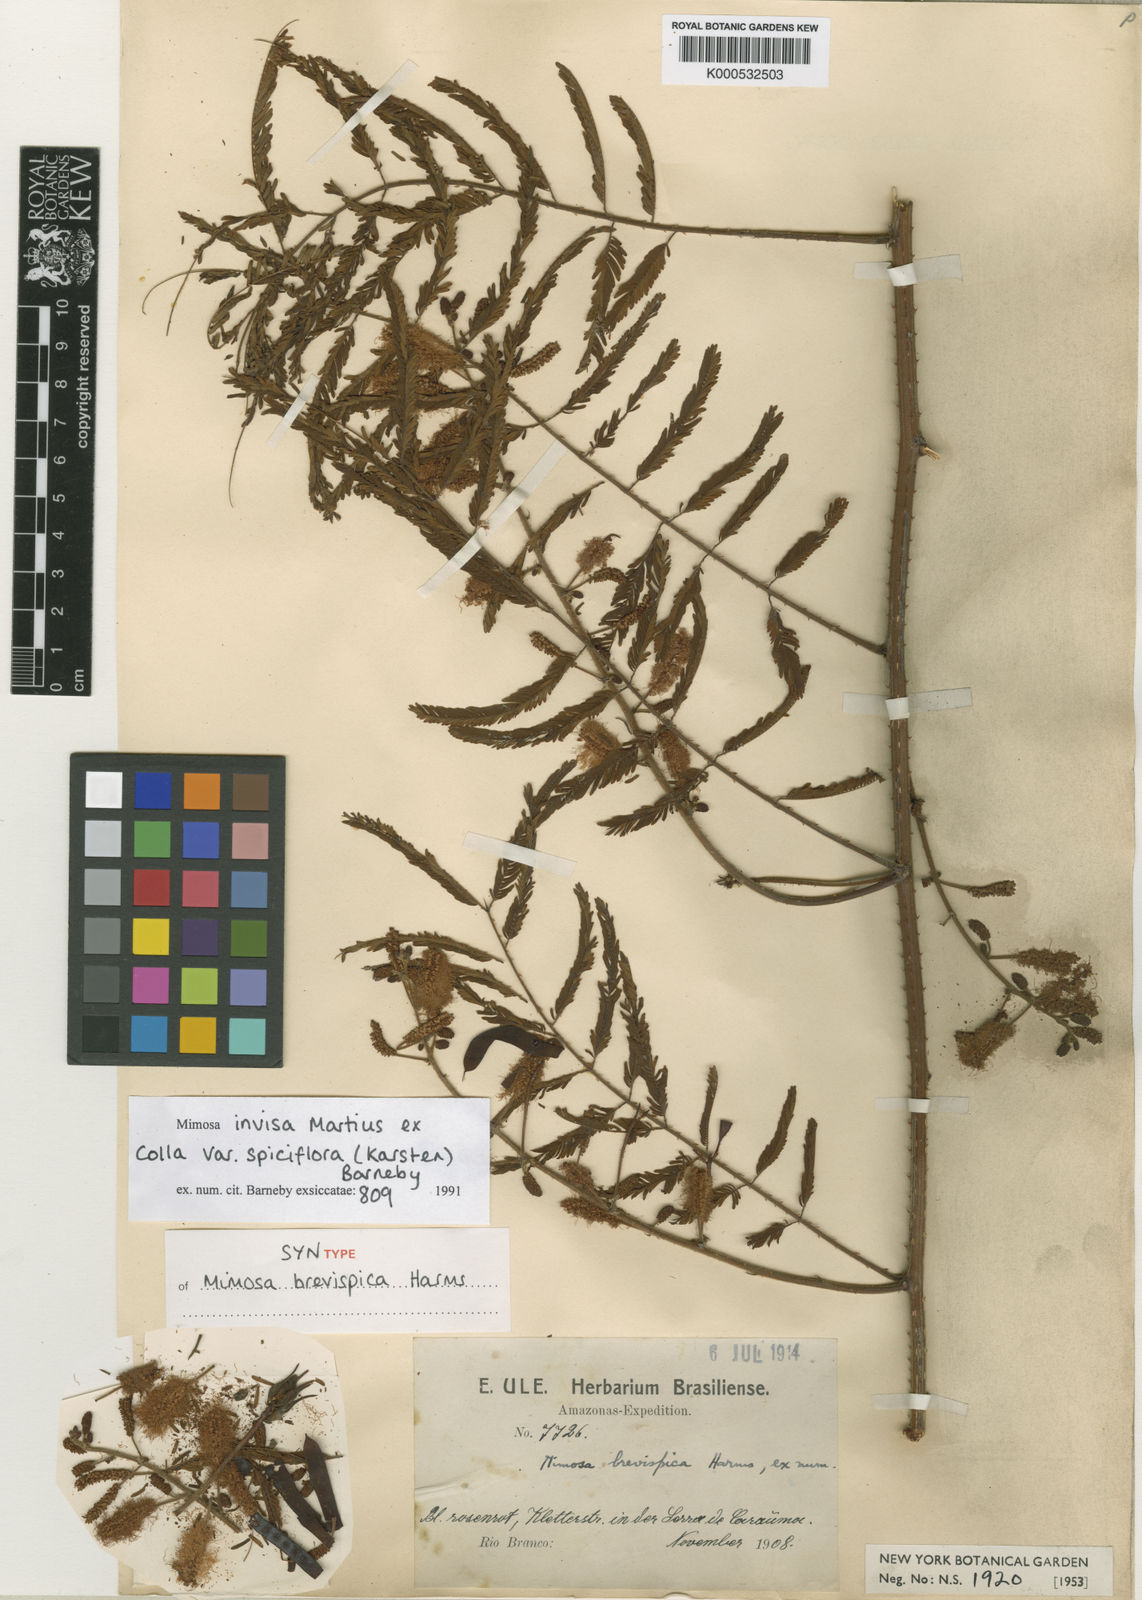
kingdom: Plantae
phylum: Tracheophyta
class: Magnoliopsida
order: Fabales
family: Fabaceae
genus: Mimosa
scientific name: Mimosa invisa
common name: Creeping sensitive-plant
